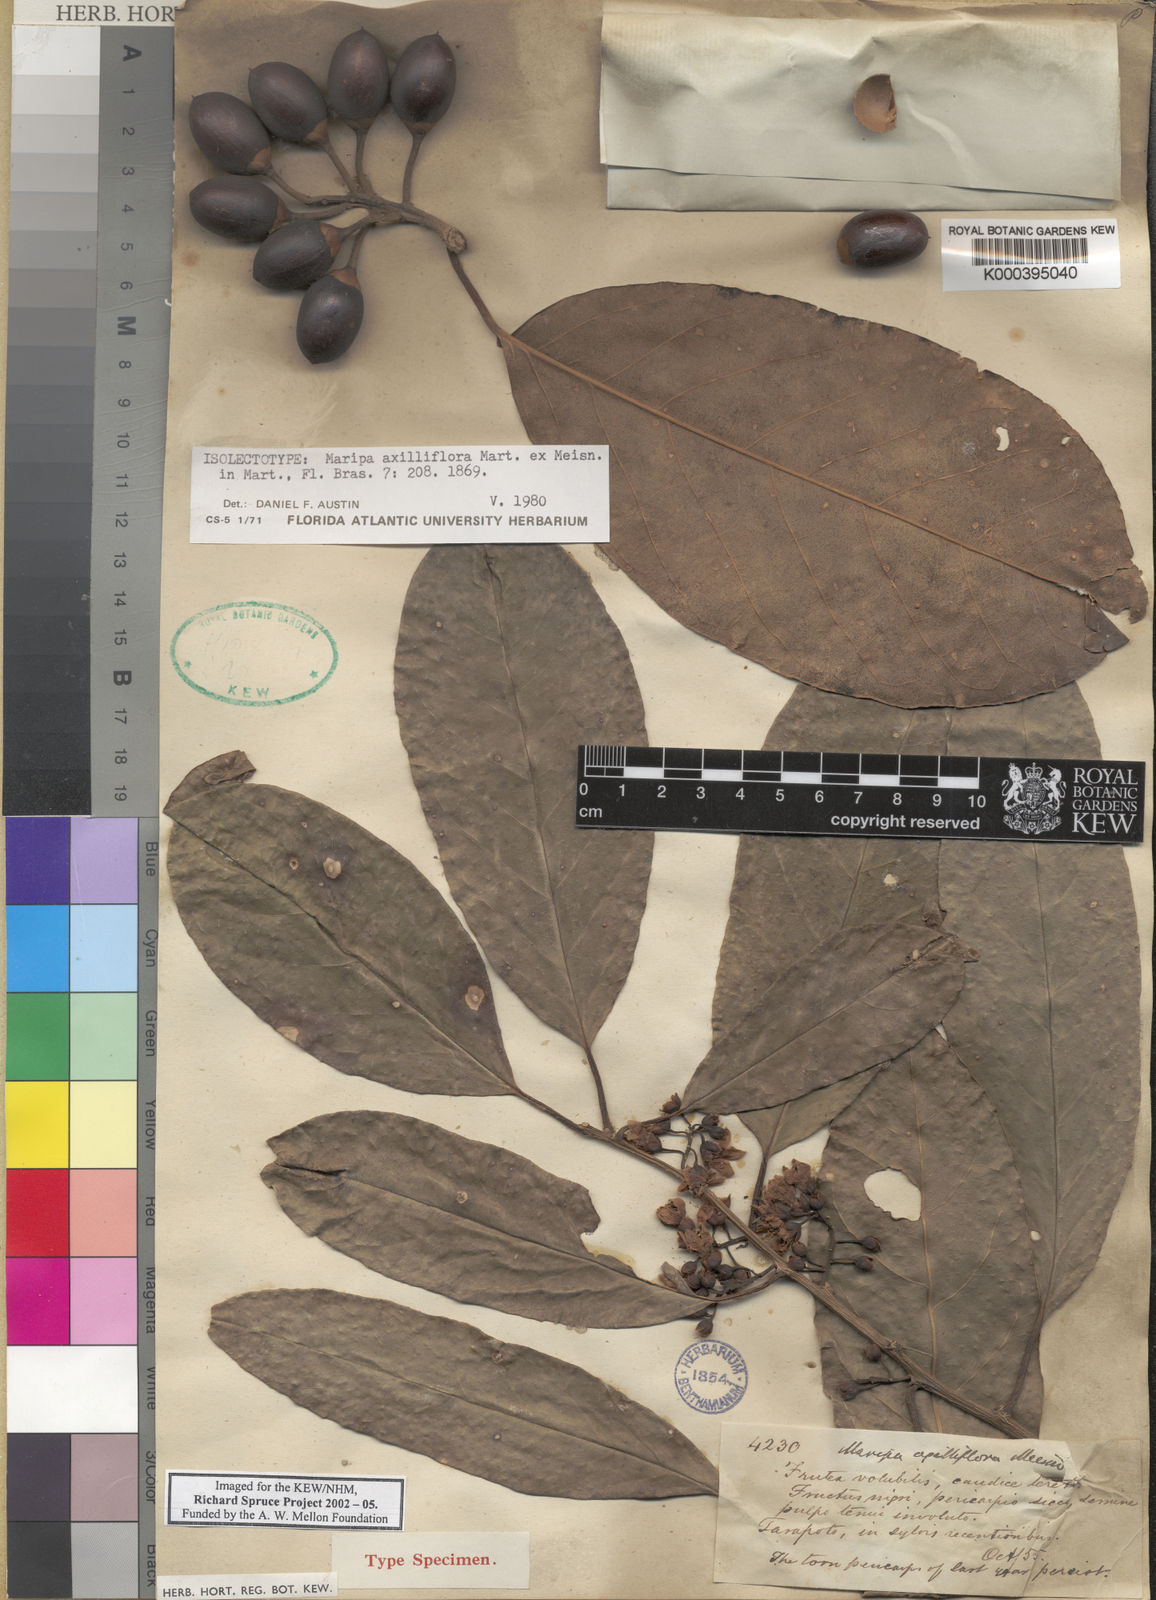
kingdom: Plantae
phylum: Tracheophyta
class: Magnoliopsida
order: Solanales
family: Convolvulaceae
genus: Maripa
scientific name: Maripa axilliflora
